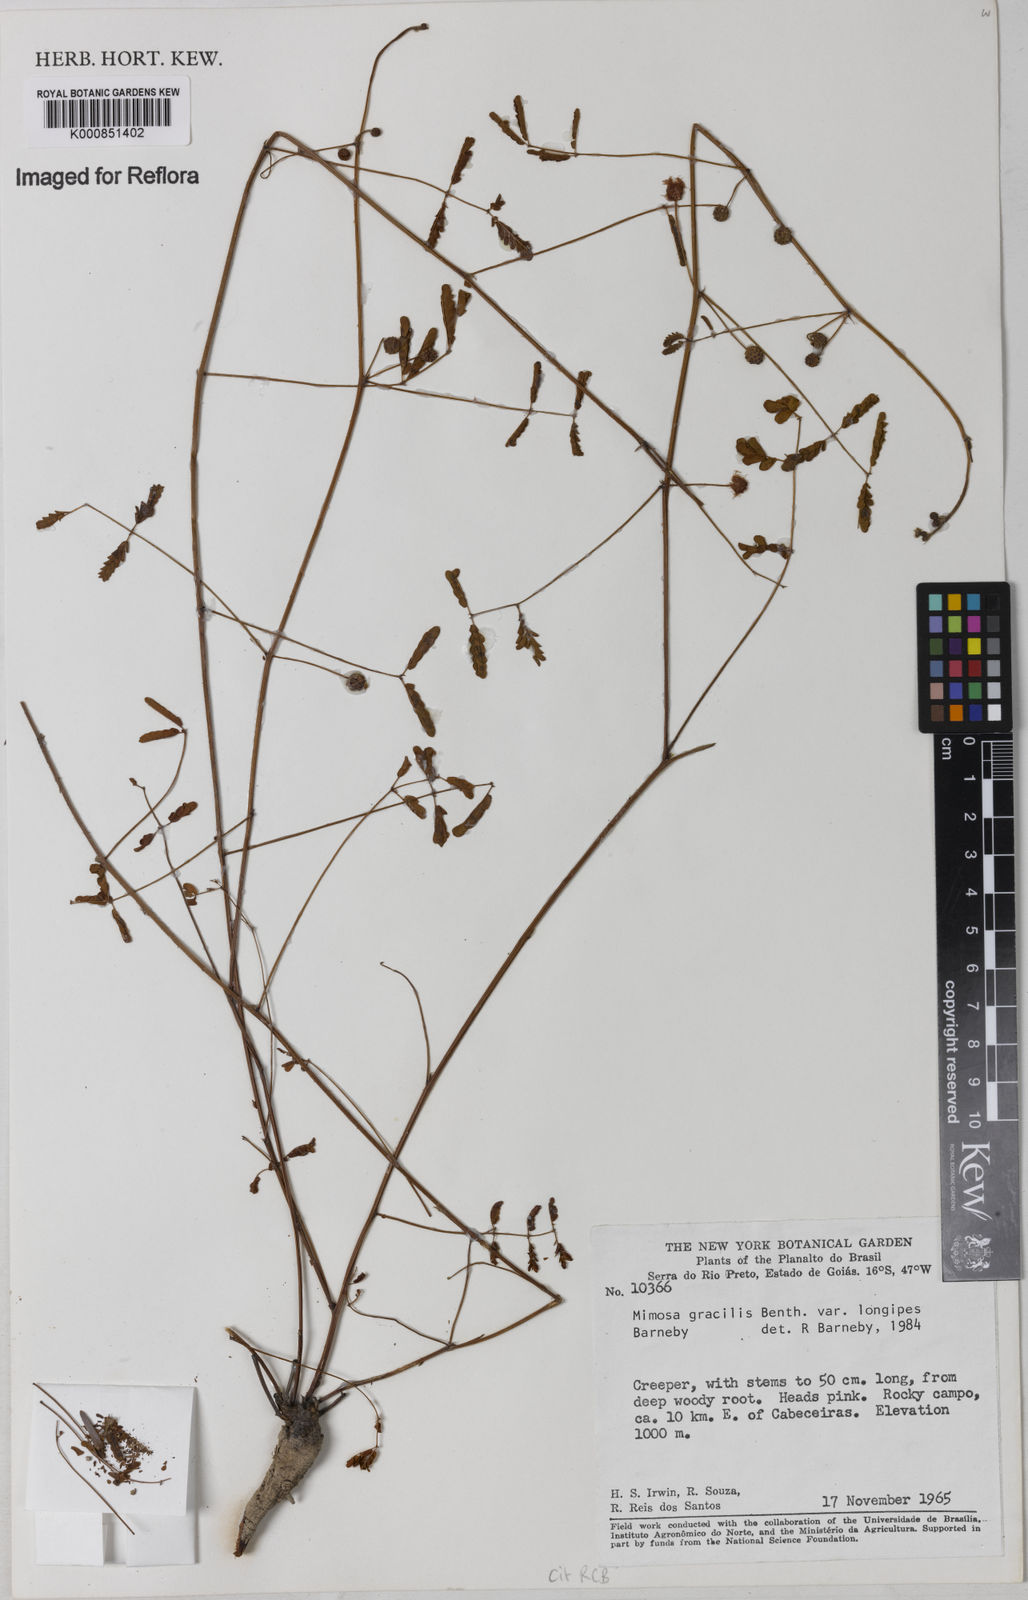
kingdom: Plantae
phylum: Tracheophyta
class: Magnoliopsida
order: Fabales
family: Fabaceae
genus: Mimosa
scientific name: Mimosa gracilis
